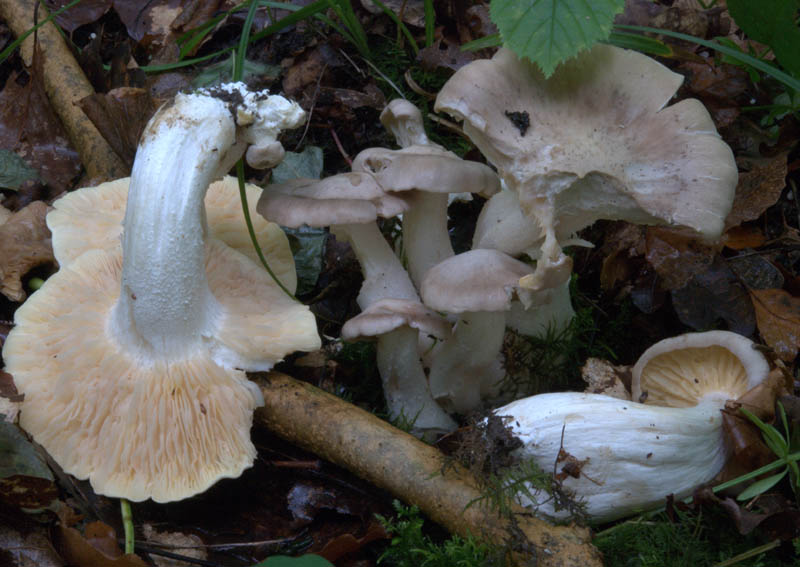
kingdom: Fungi
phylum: Basidiomycota
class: Agaricomycetes
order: Agaricales
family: Entolomataceae
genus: Entoloma
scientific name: Entoloma sinuatum
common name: giftig rødblad
